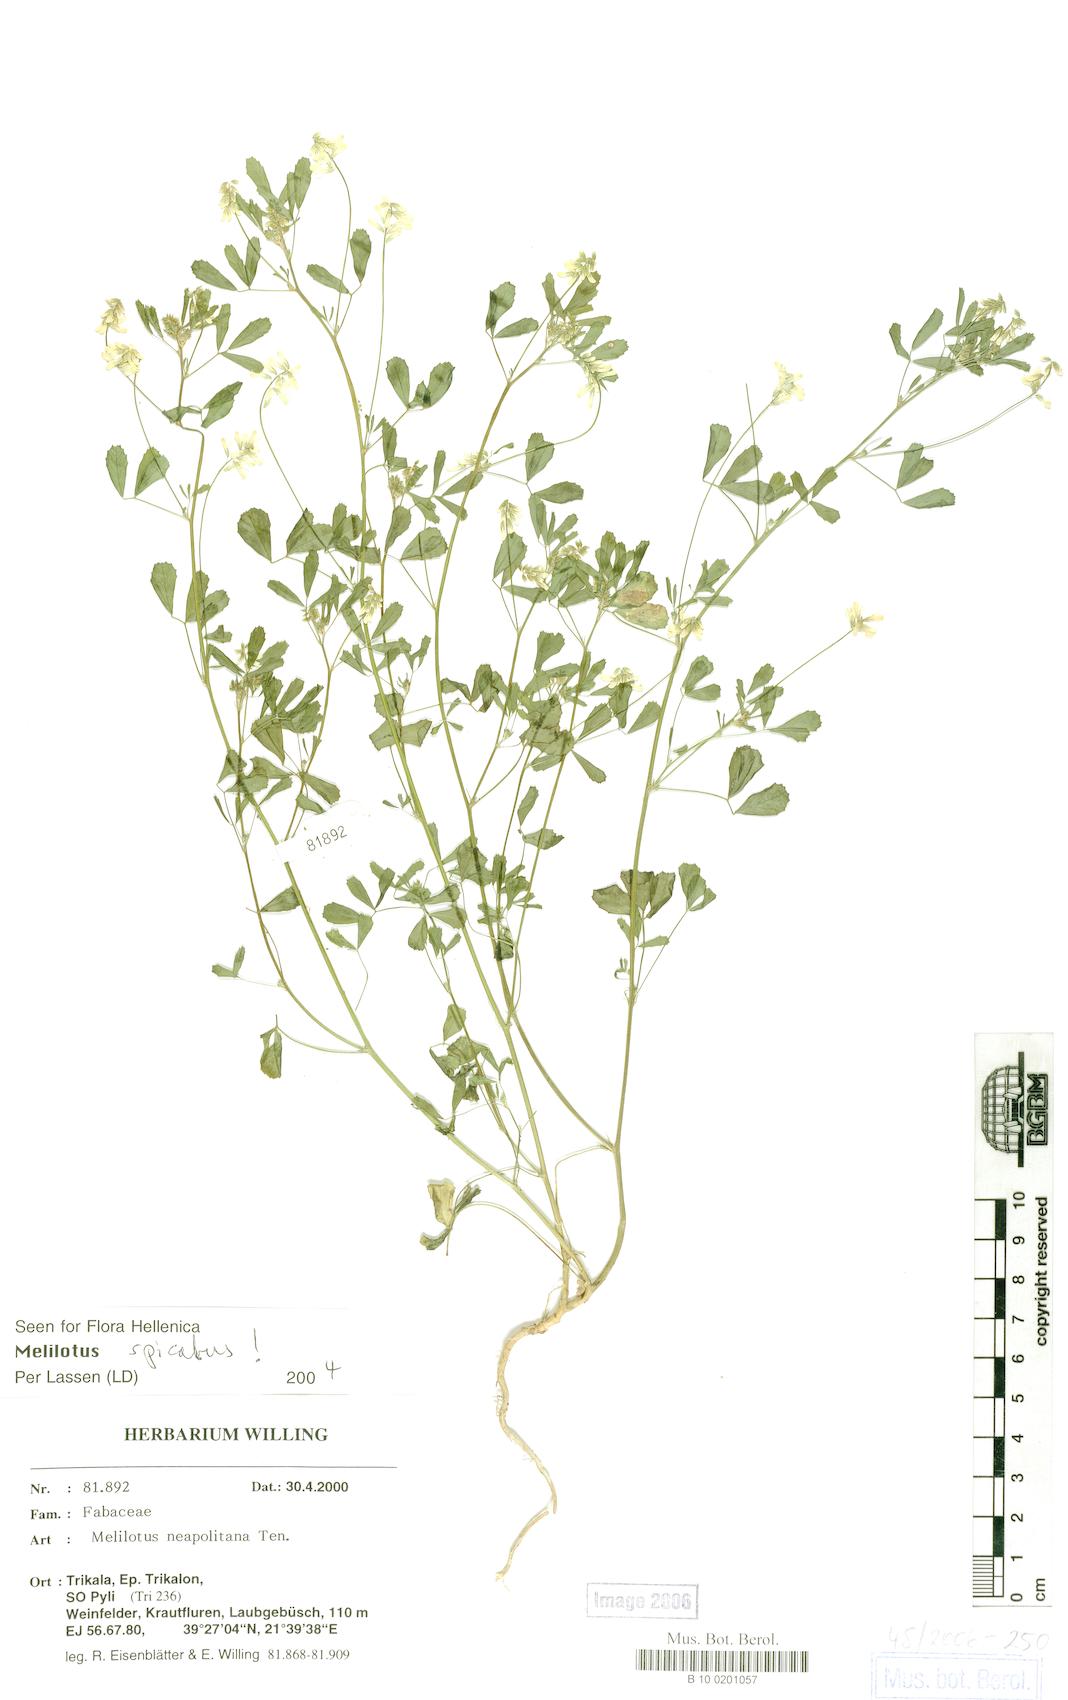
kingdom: Plantae
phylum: Tracheophyta
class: Magnoliopsida
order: Fabales
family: Fabaceae
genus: Melilotus
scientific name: Melilotus neapolitanus
